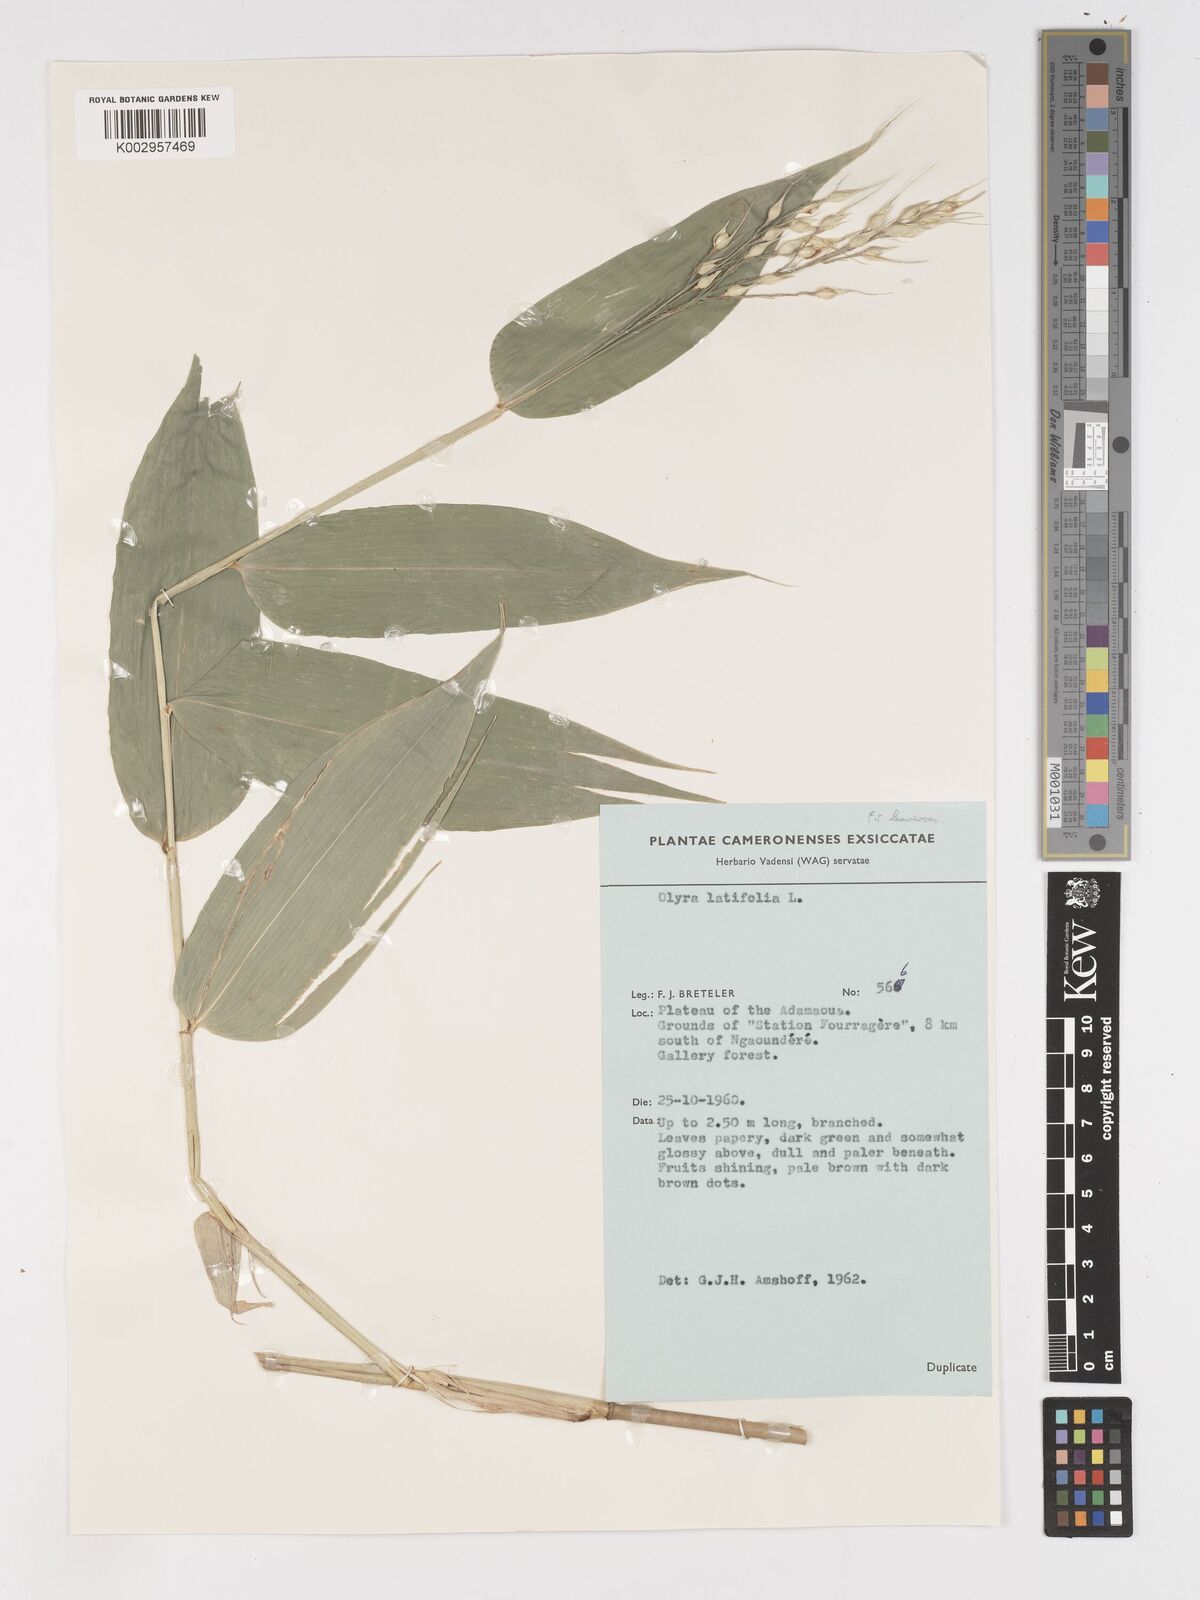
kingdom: Plantae
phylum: Tracheophyta
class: Liliopsida
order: Poales
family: Poaceae
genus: Olyra
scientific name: Olyra latifolia
